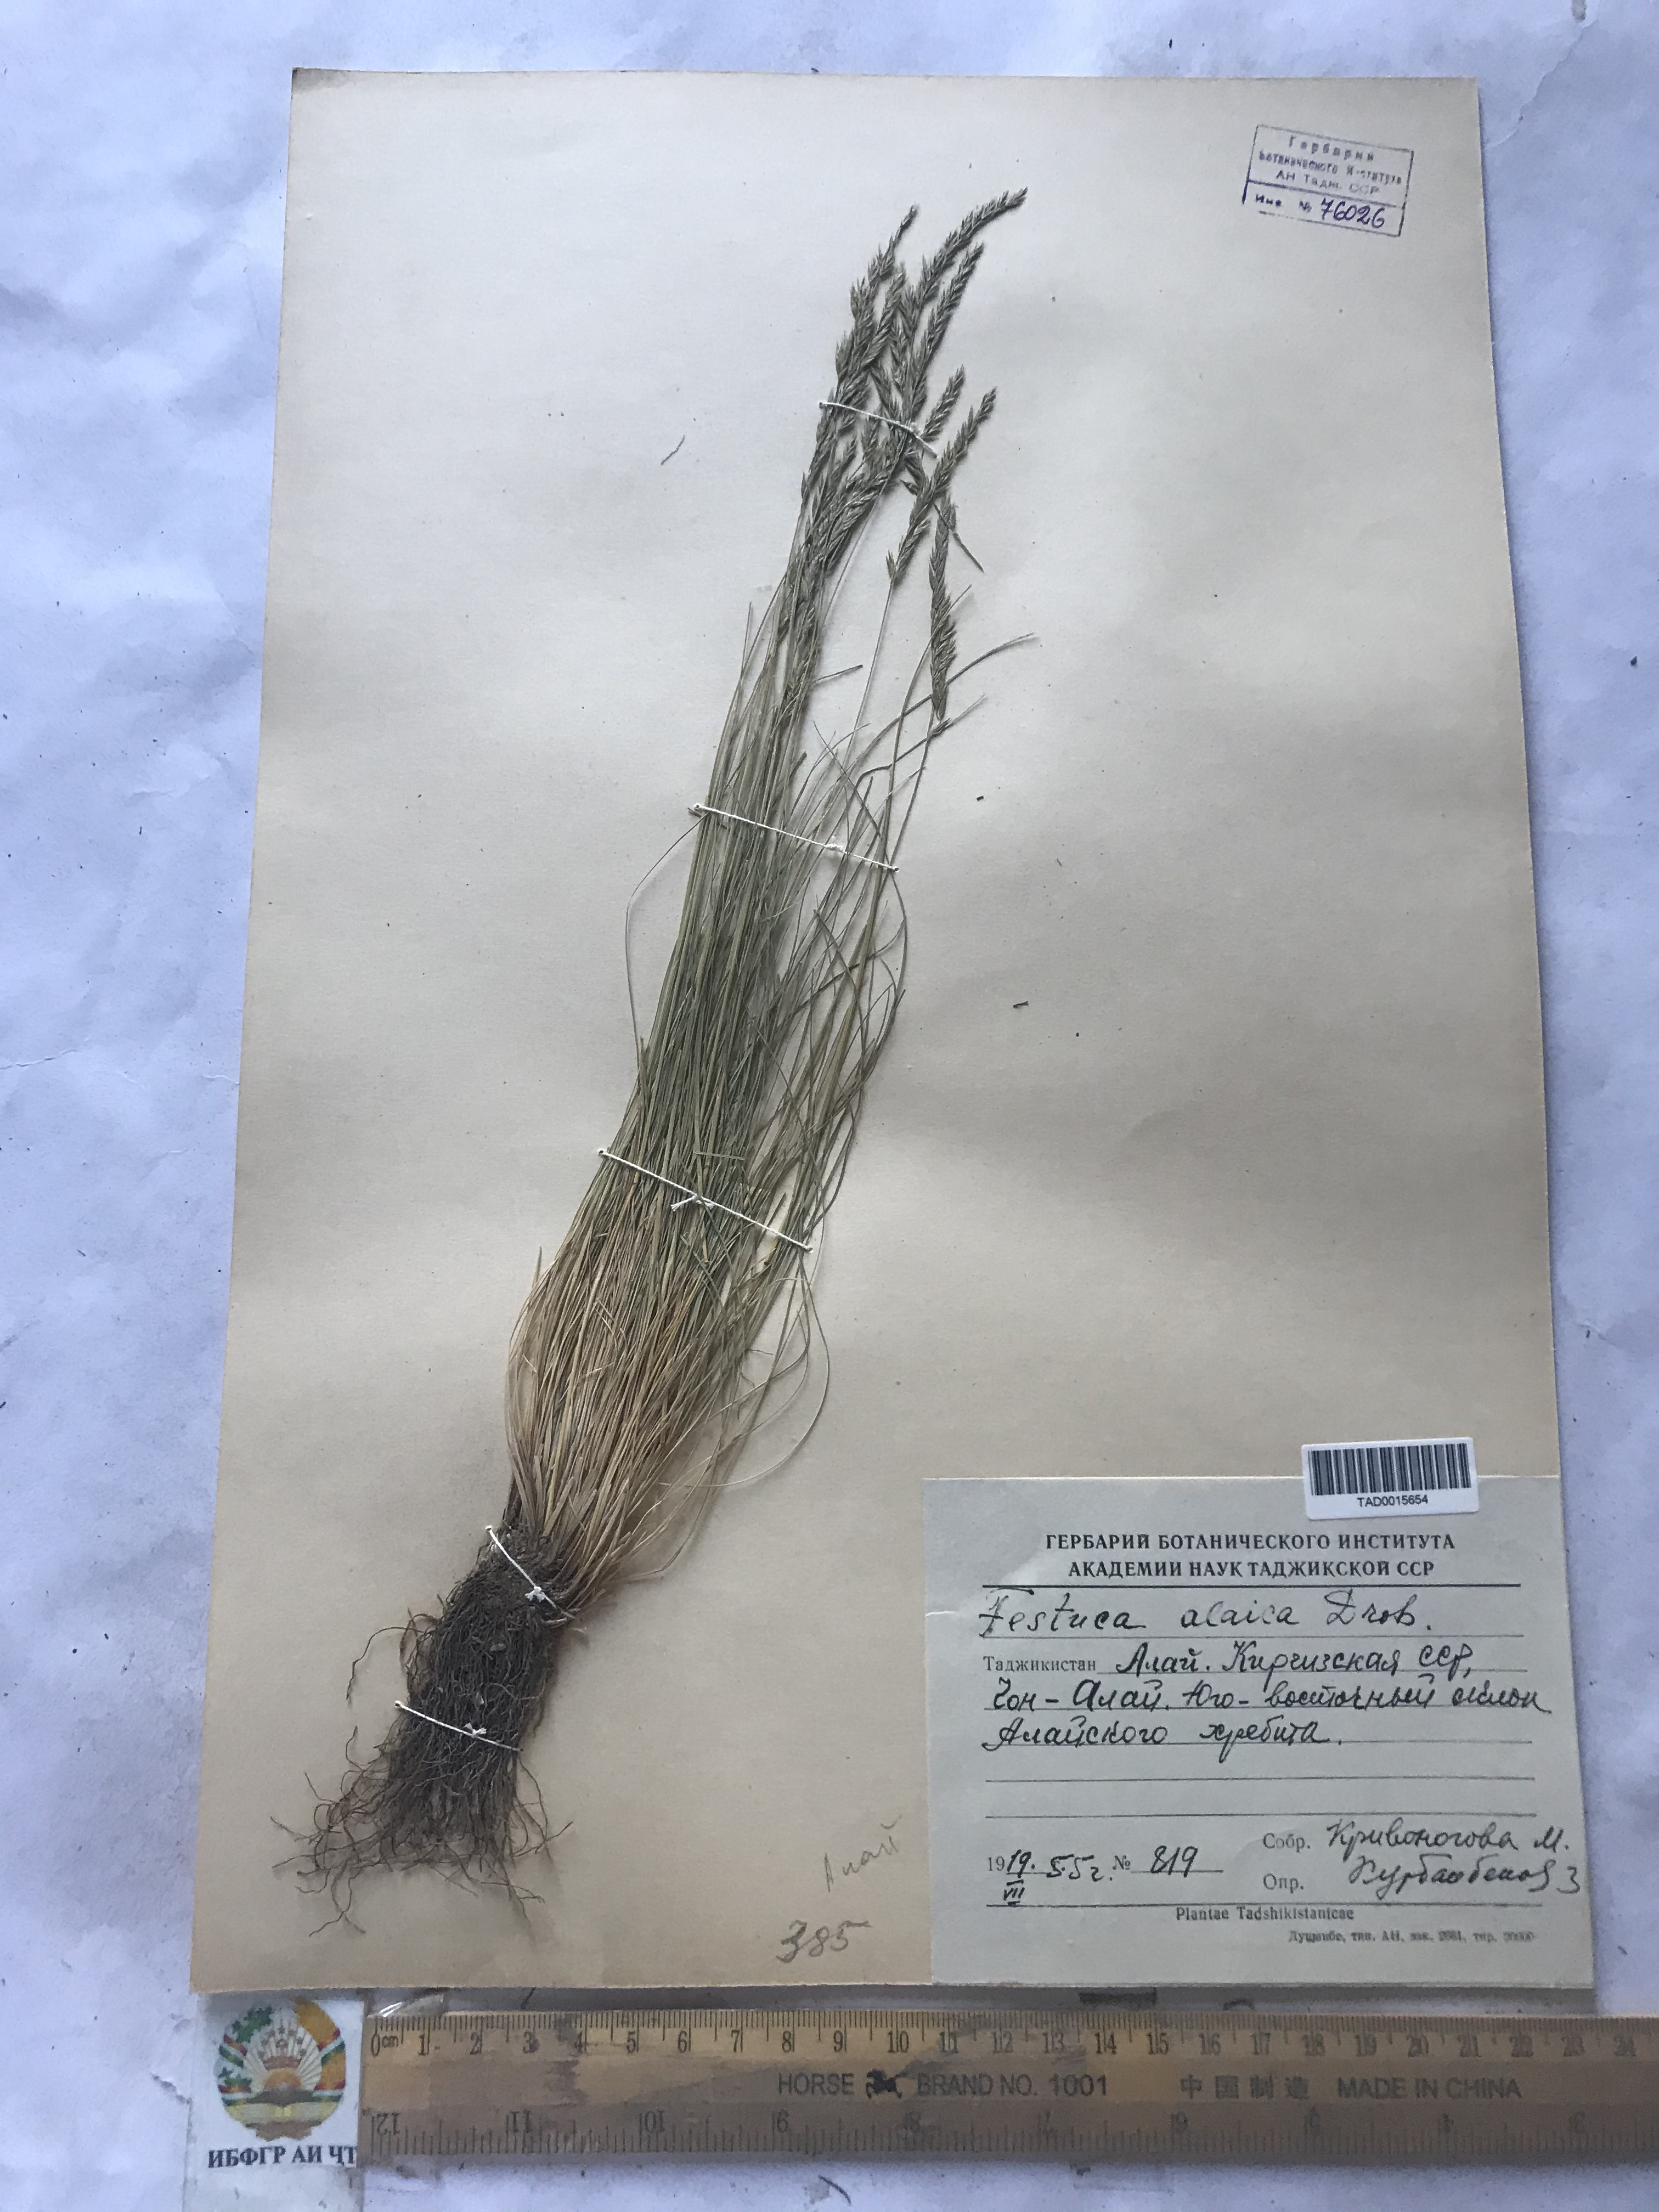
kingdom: Plantae
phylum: Tracheophyta
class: Liliopsida
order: Poales
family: Poaceae
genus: Festuca
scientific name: Festuca alaica
